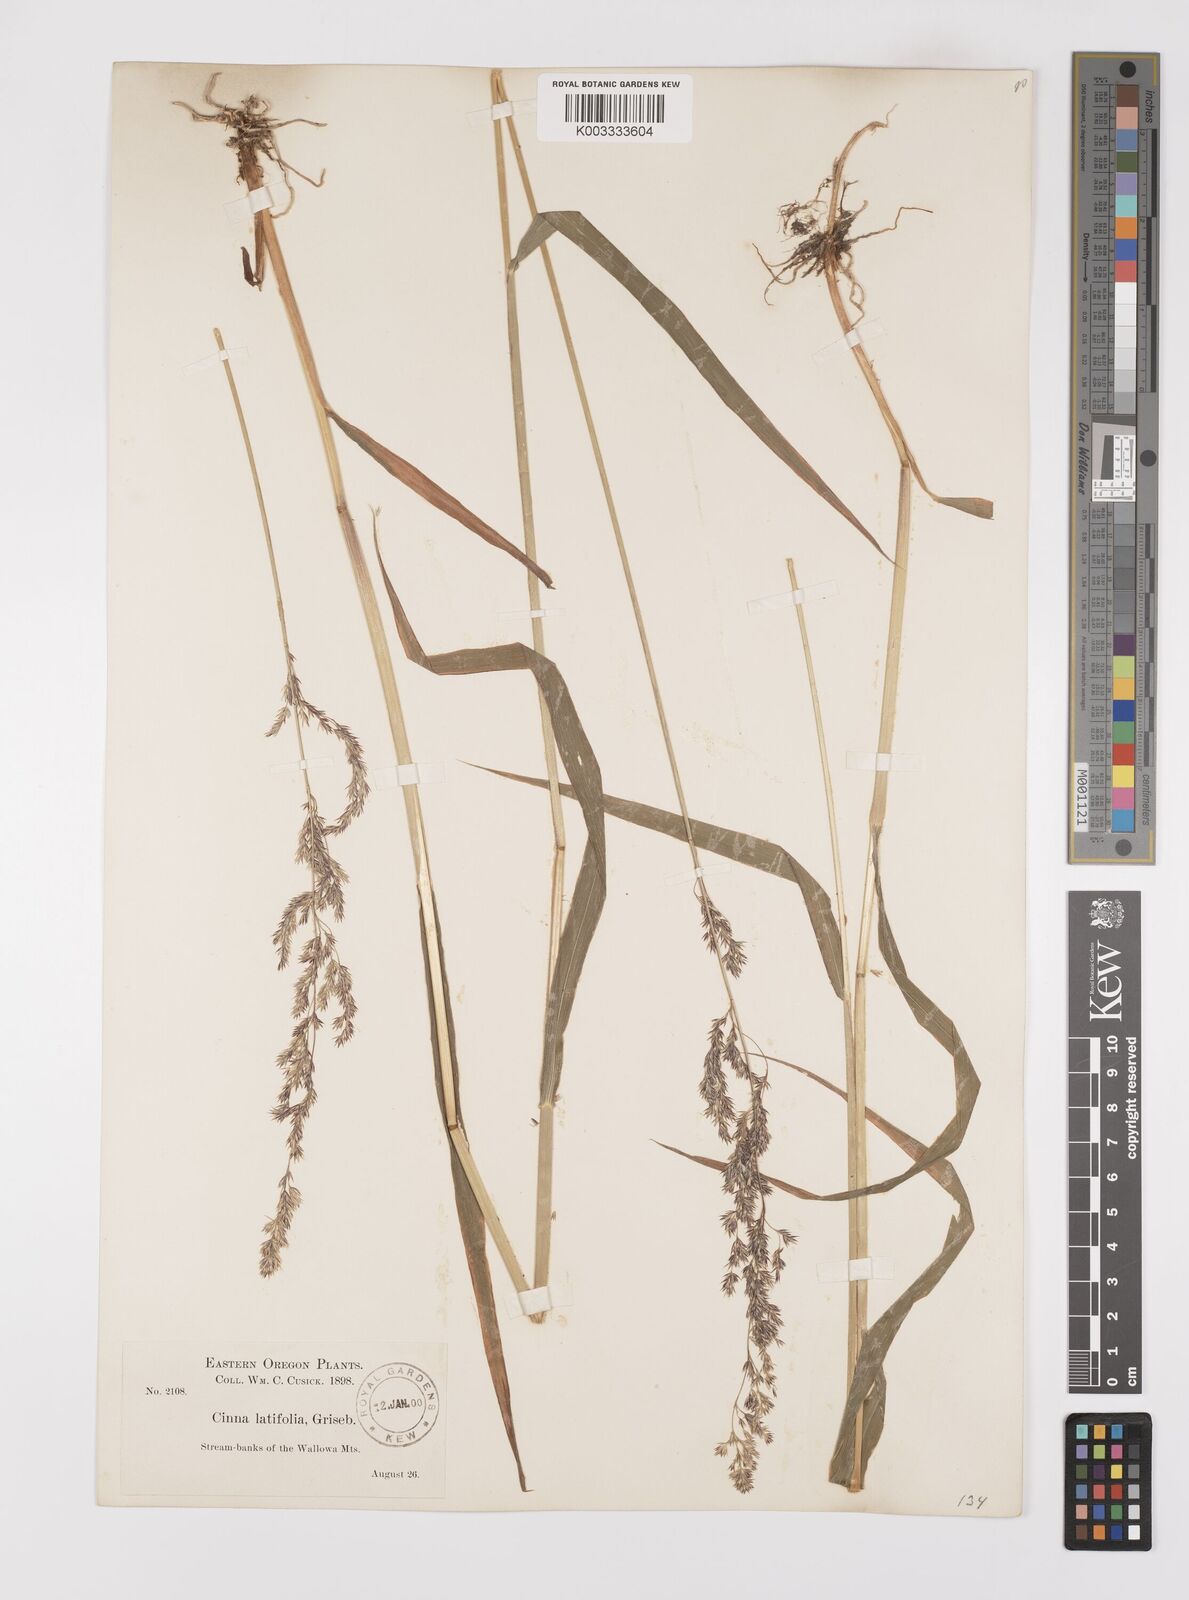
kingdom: Plantae
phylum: Tracheophyta
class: Liliopsida
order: Poales
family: Poaceae
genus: Cinna
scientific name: Cinna latifolia
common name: Drooping woodreed
